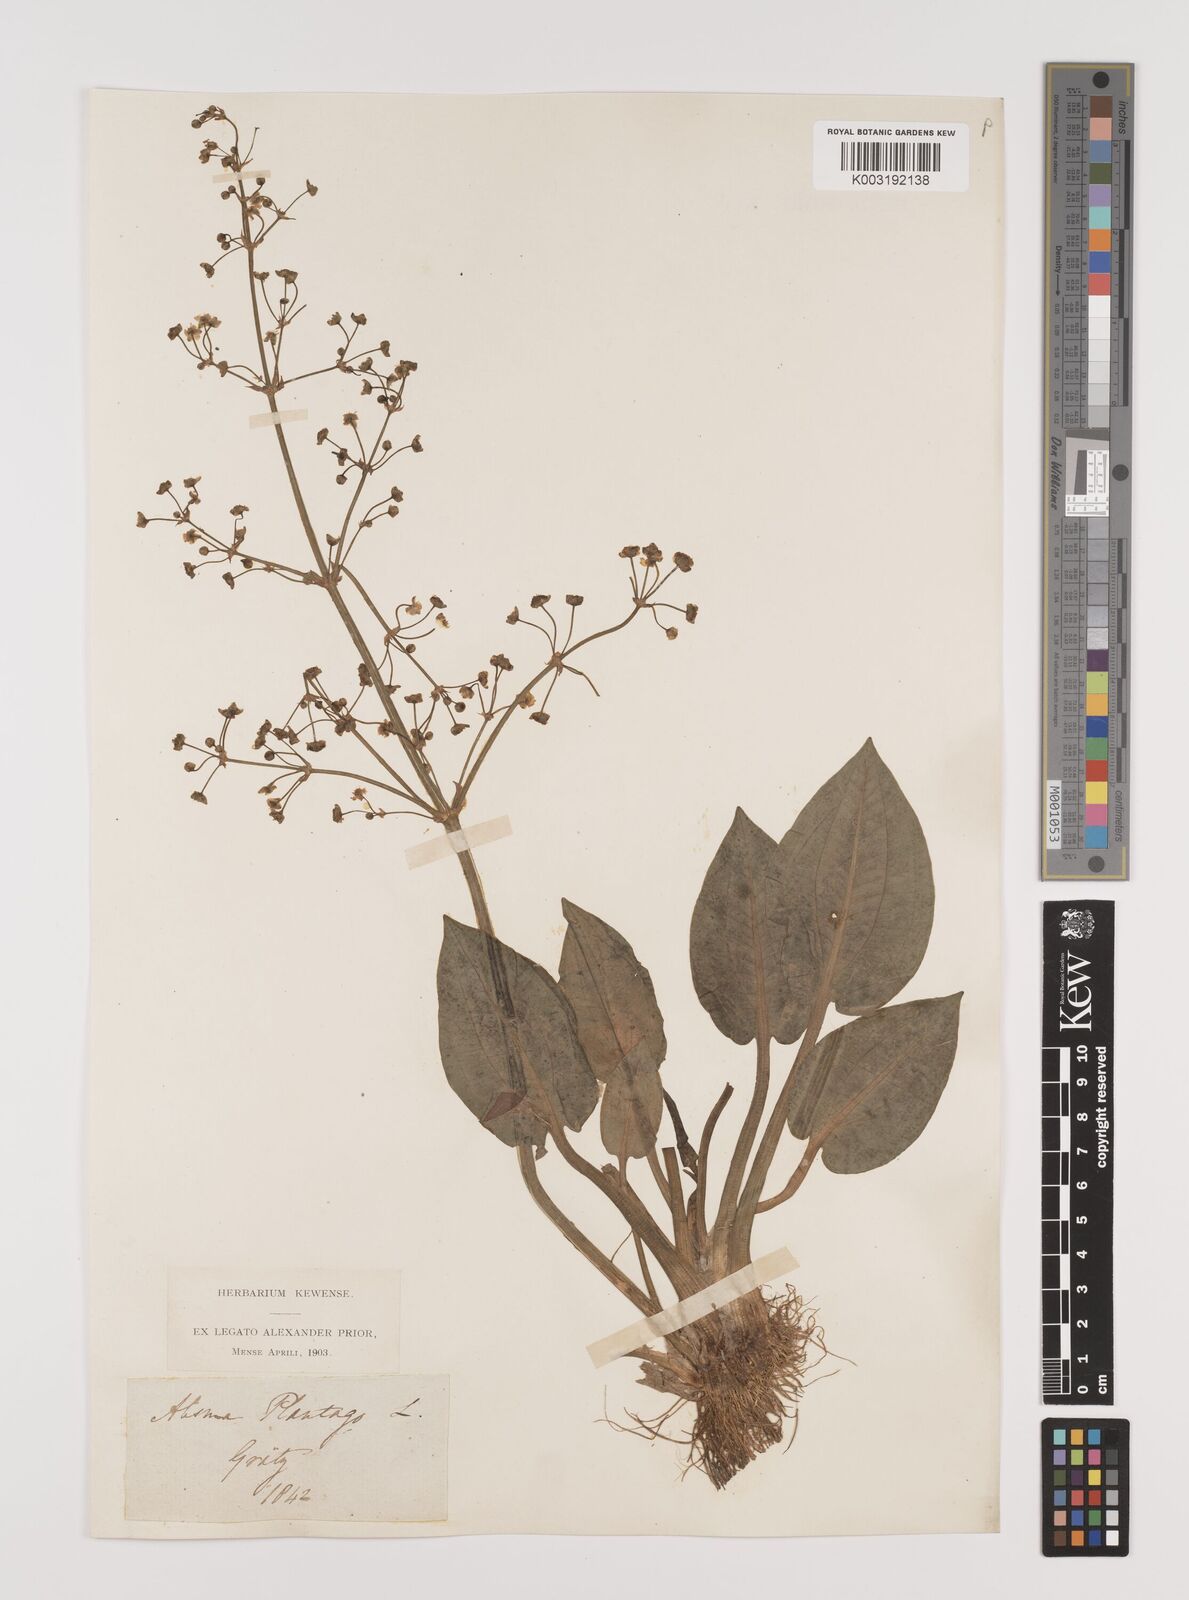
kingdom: Plantae
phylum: Tracheophyta
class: Liliopsida
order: Alismatales
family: Alismataceae
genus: Alisma
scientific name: Alisma plantago-aquatica
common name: Water-plantain
